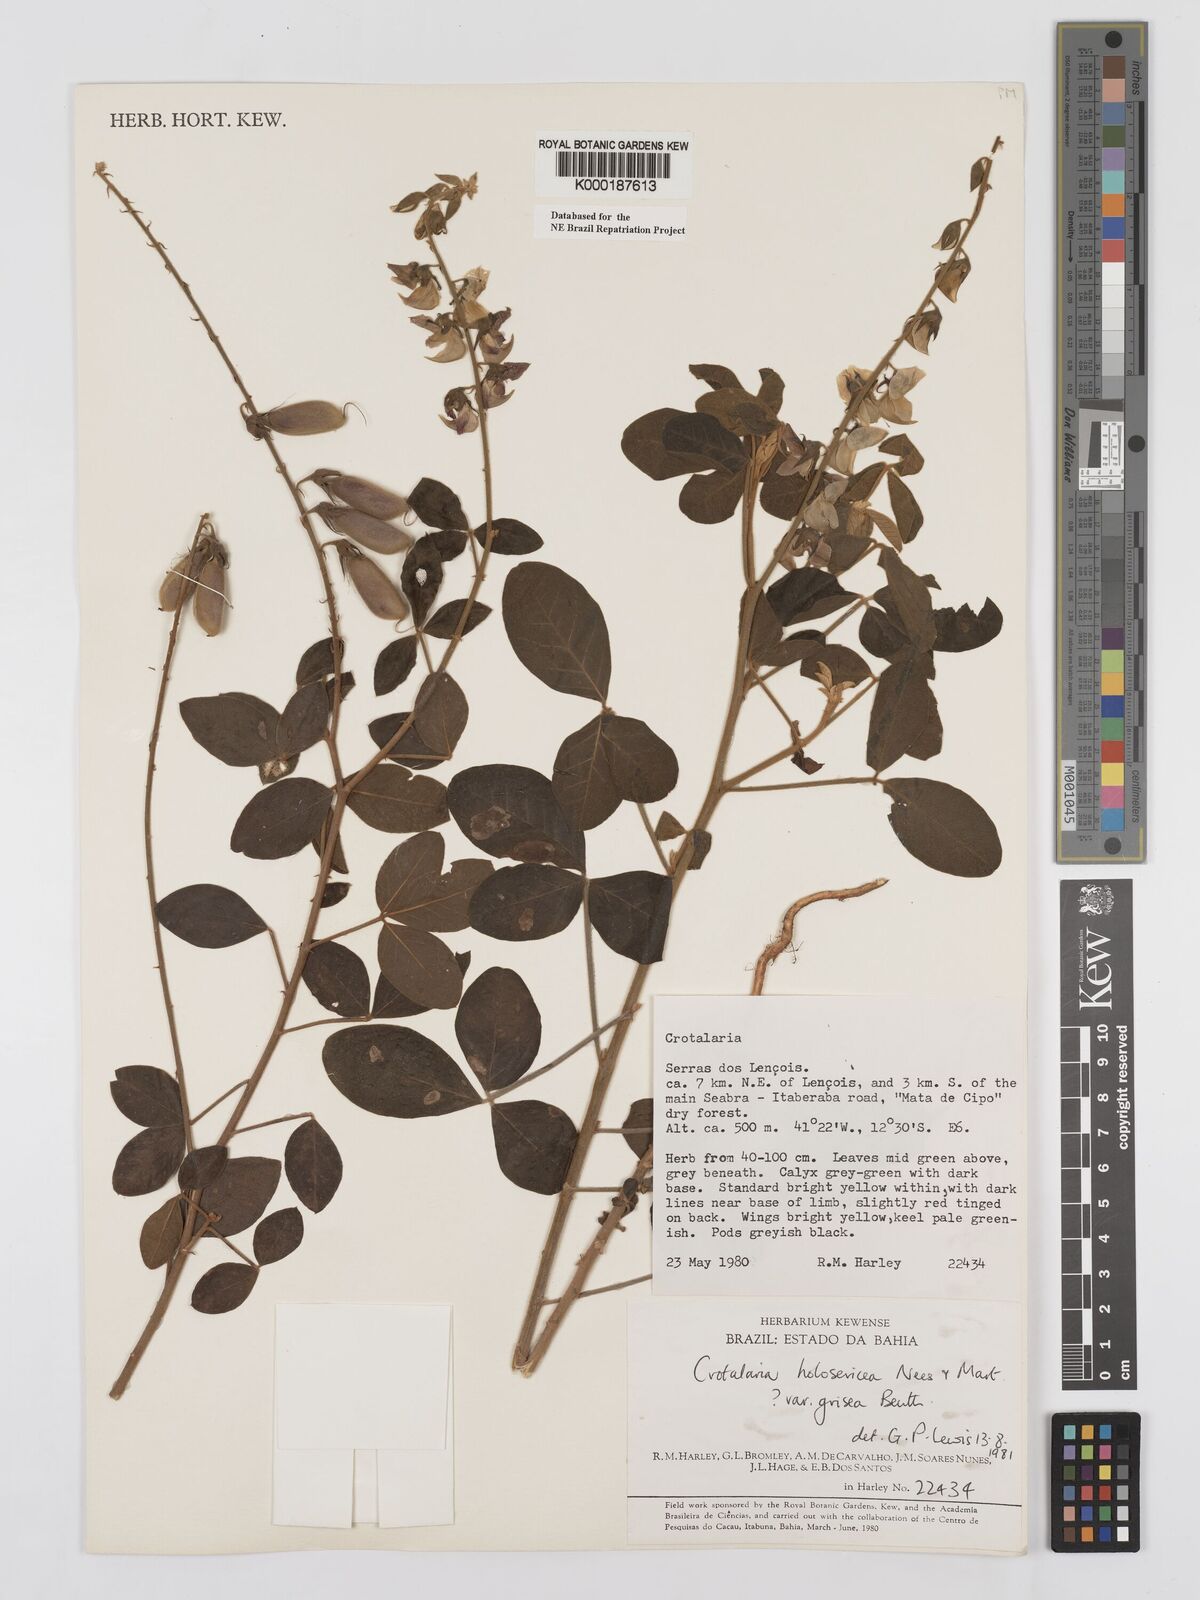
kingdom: Plantae
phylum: Tracheophyta
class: Magnoliopsida
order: Fabales
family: Fabaceae
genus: Crotalaria
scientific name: Crotalaria holosericea
